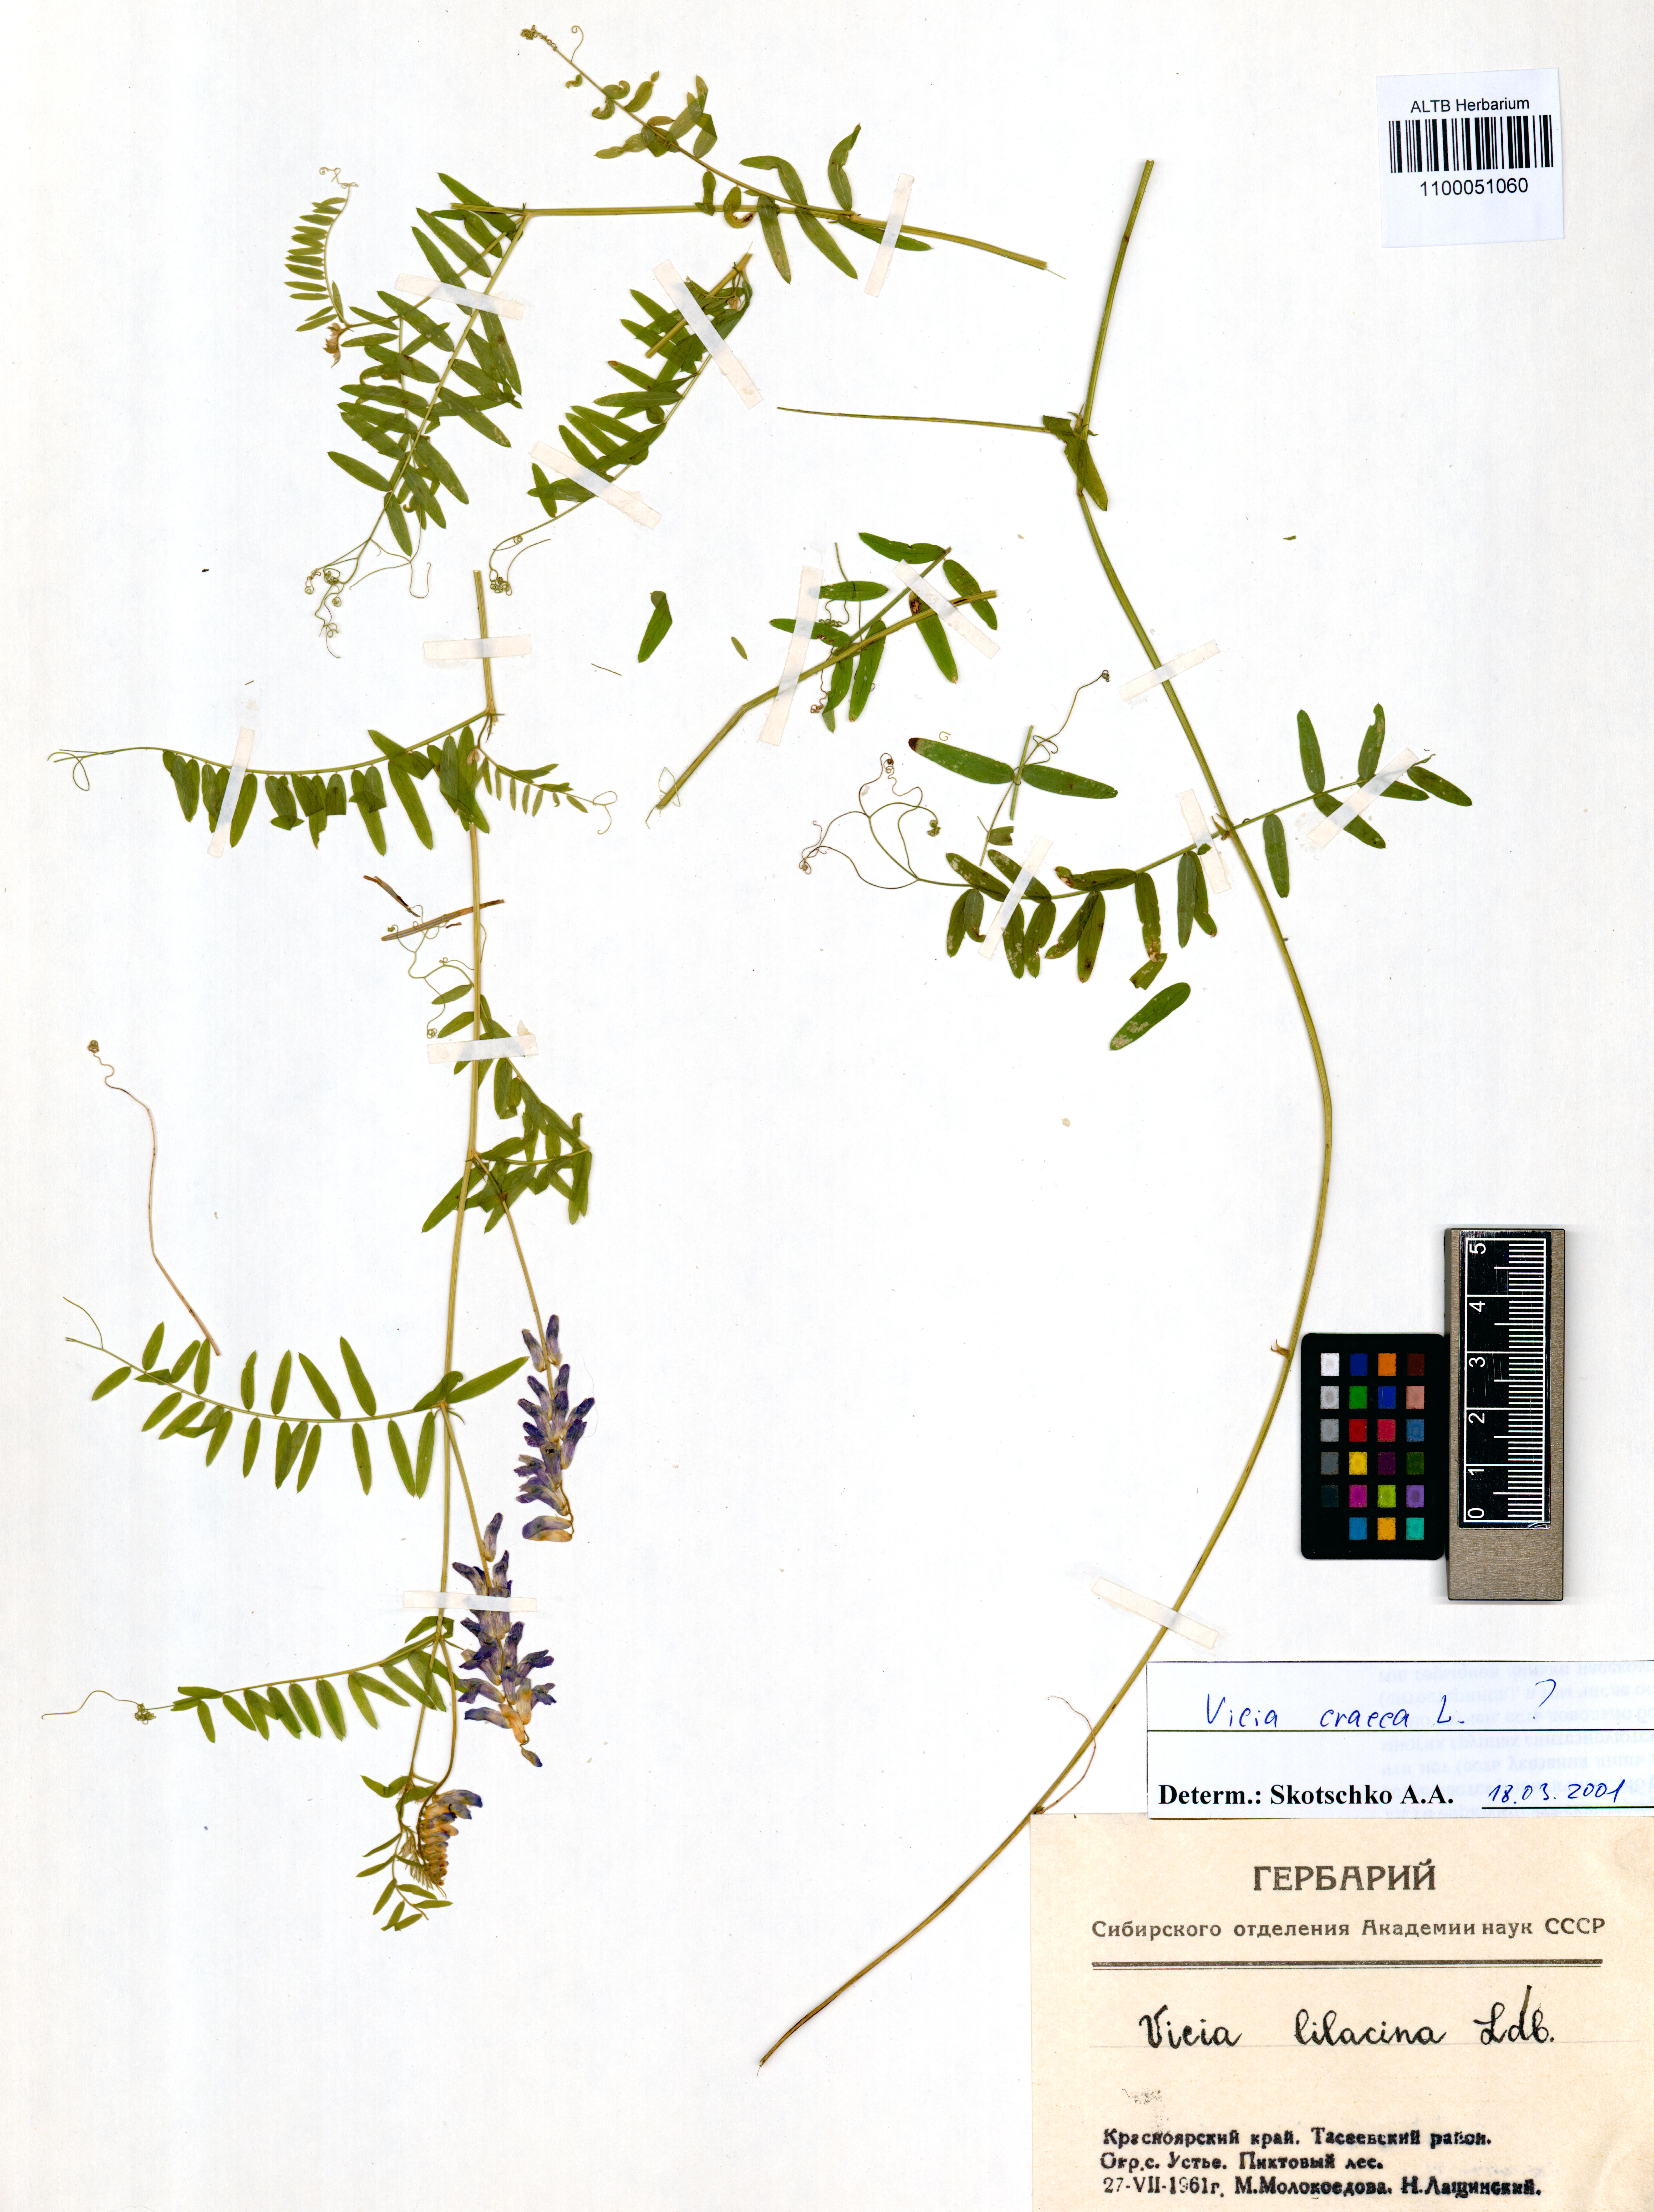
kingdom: Plantae
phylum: Tracheophyta
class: Magnoliopsida
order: Fabales
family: Fabaceae
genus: Vicia
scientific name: Vicia cracca
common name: Bird vetch
